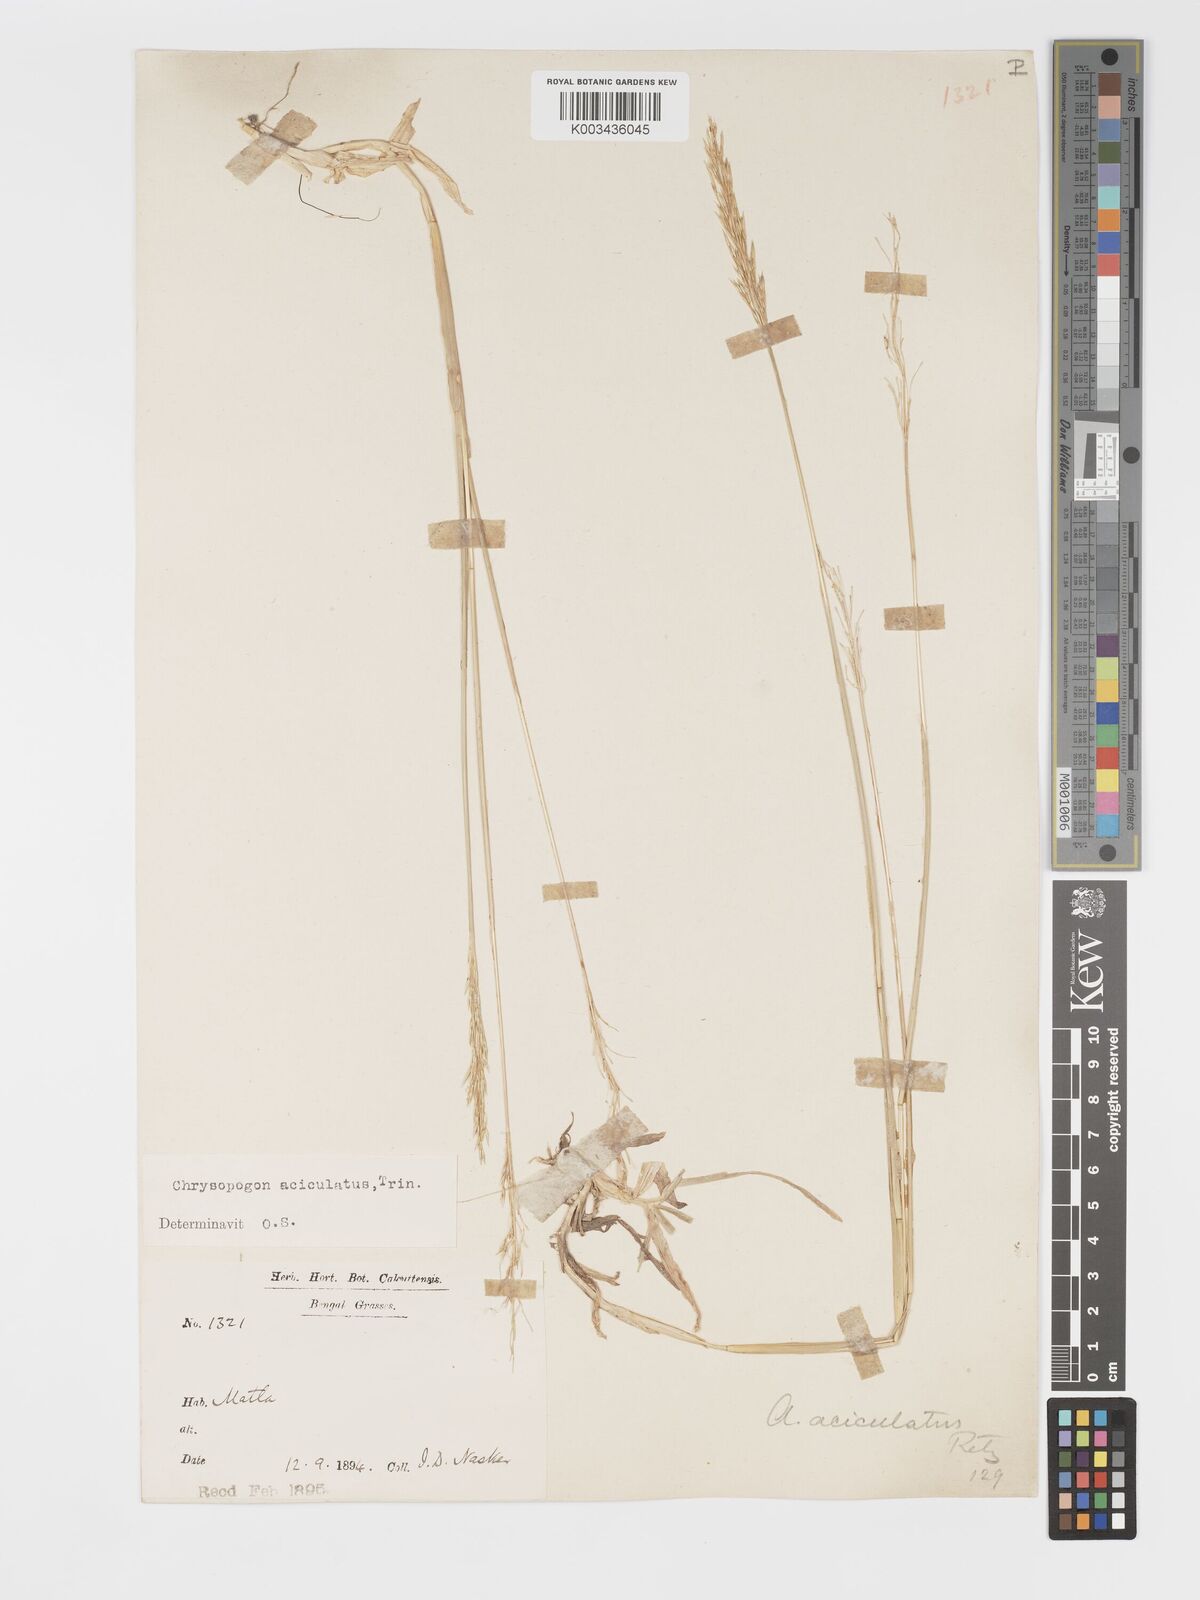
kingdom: Plantae
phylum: Tracheophyta
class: Liliopsida
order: Poales
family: Poaceae
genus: Chrysopogon
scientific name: Chrysopogon aciculatus
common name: Pilipiliula
